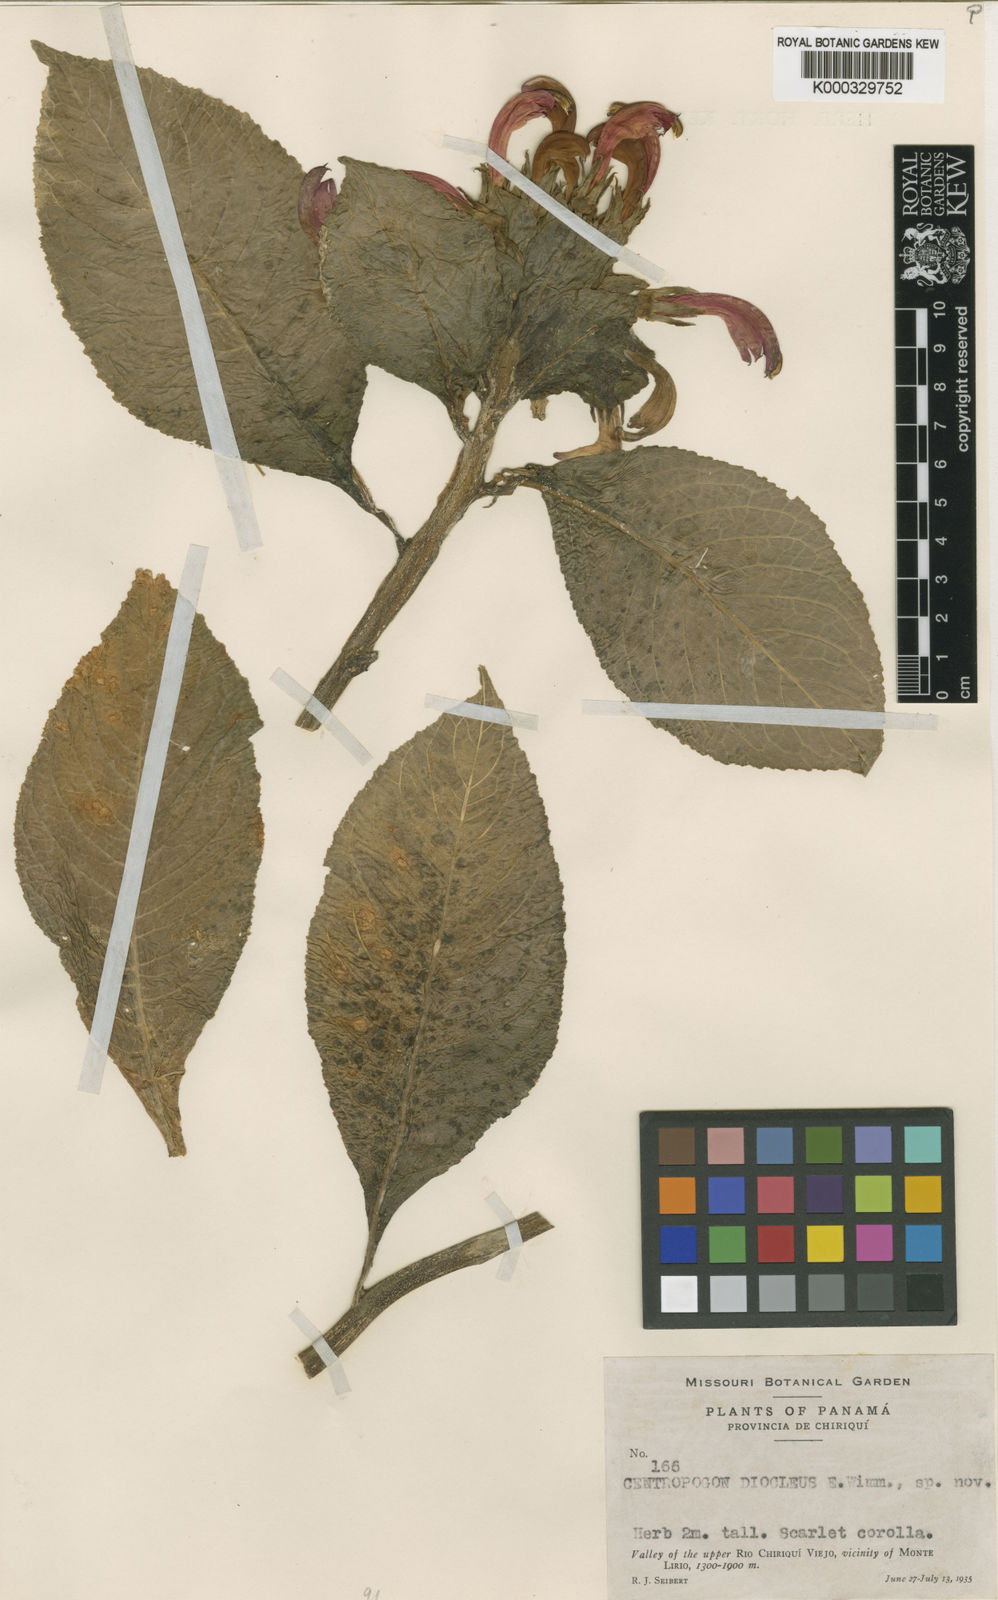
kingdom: Plantae
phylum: Tracheophyta
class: Magnoliopsida
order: Asterales
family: Campanulaceae
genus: Centropogon
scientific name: Centropogon congestus
